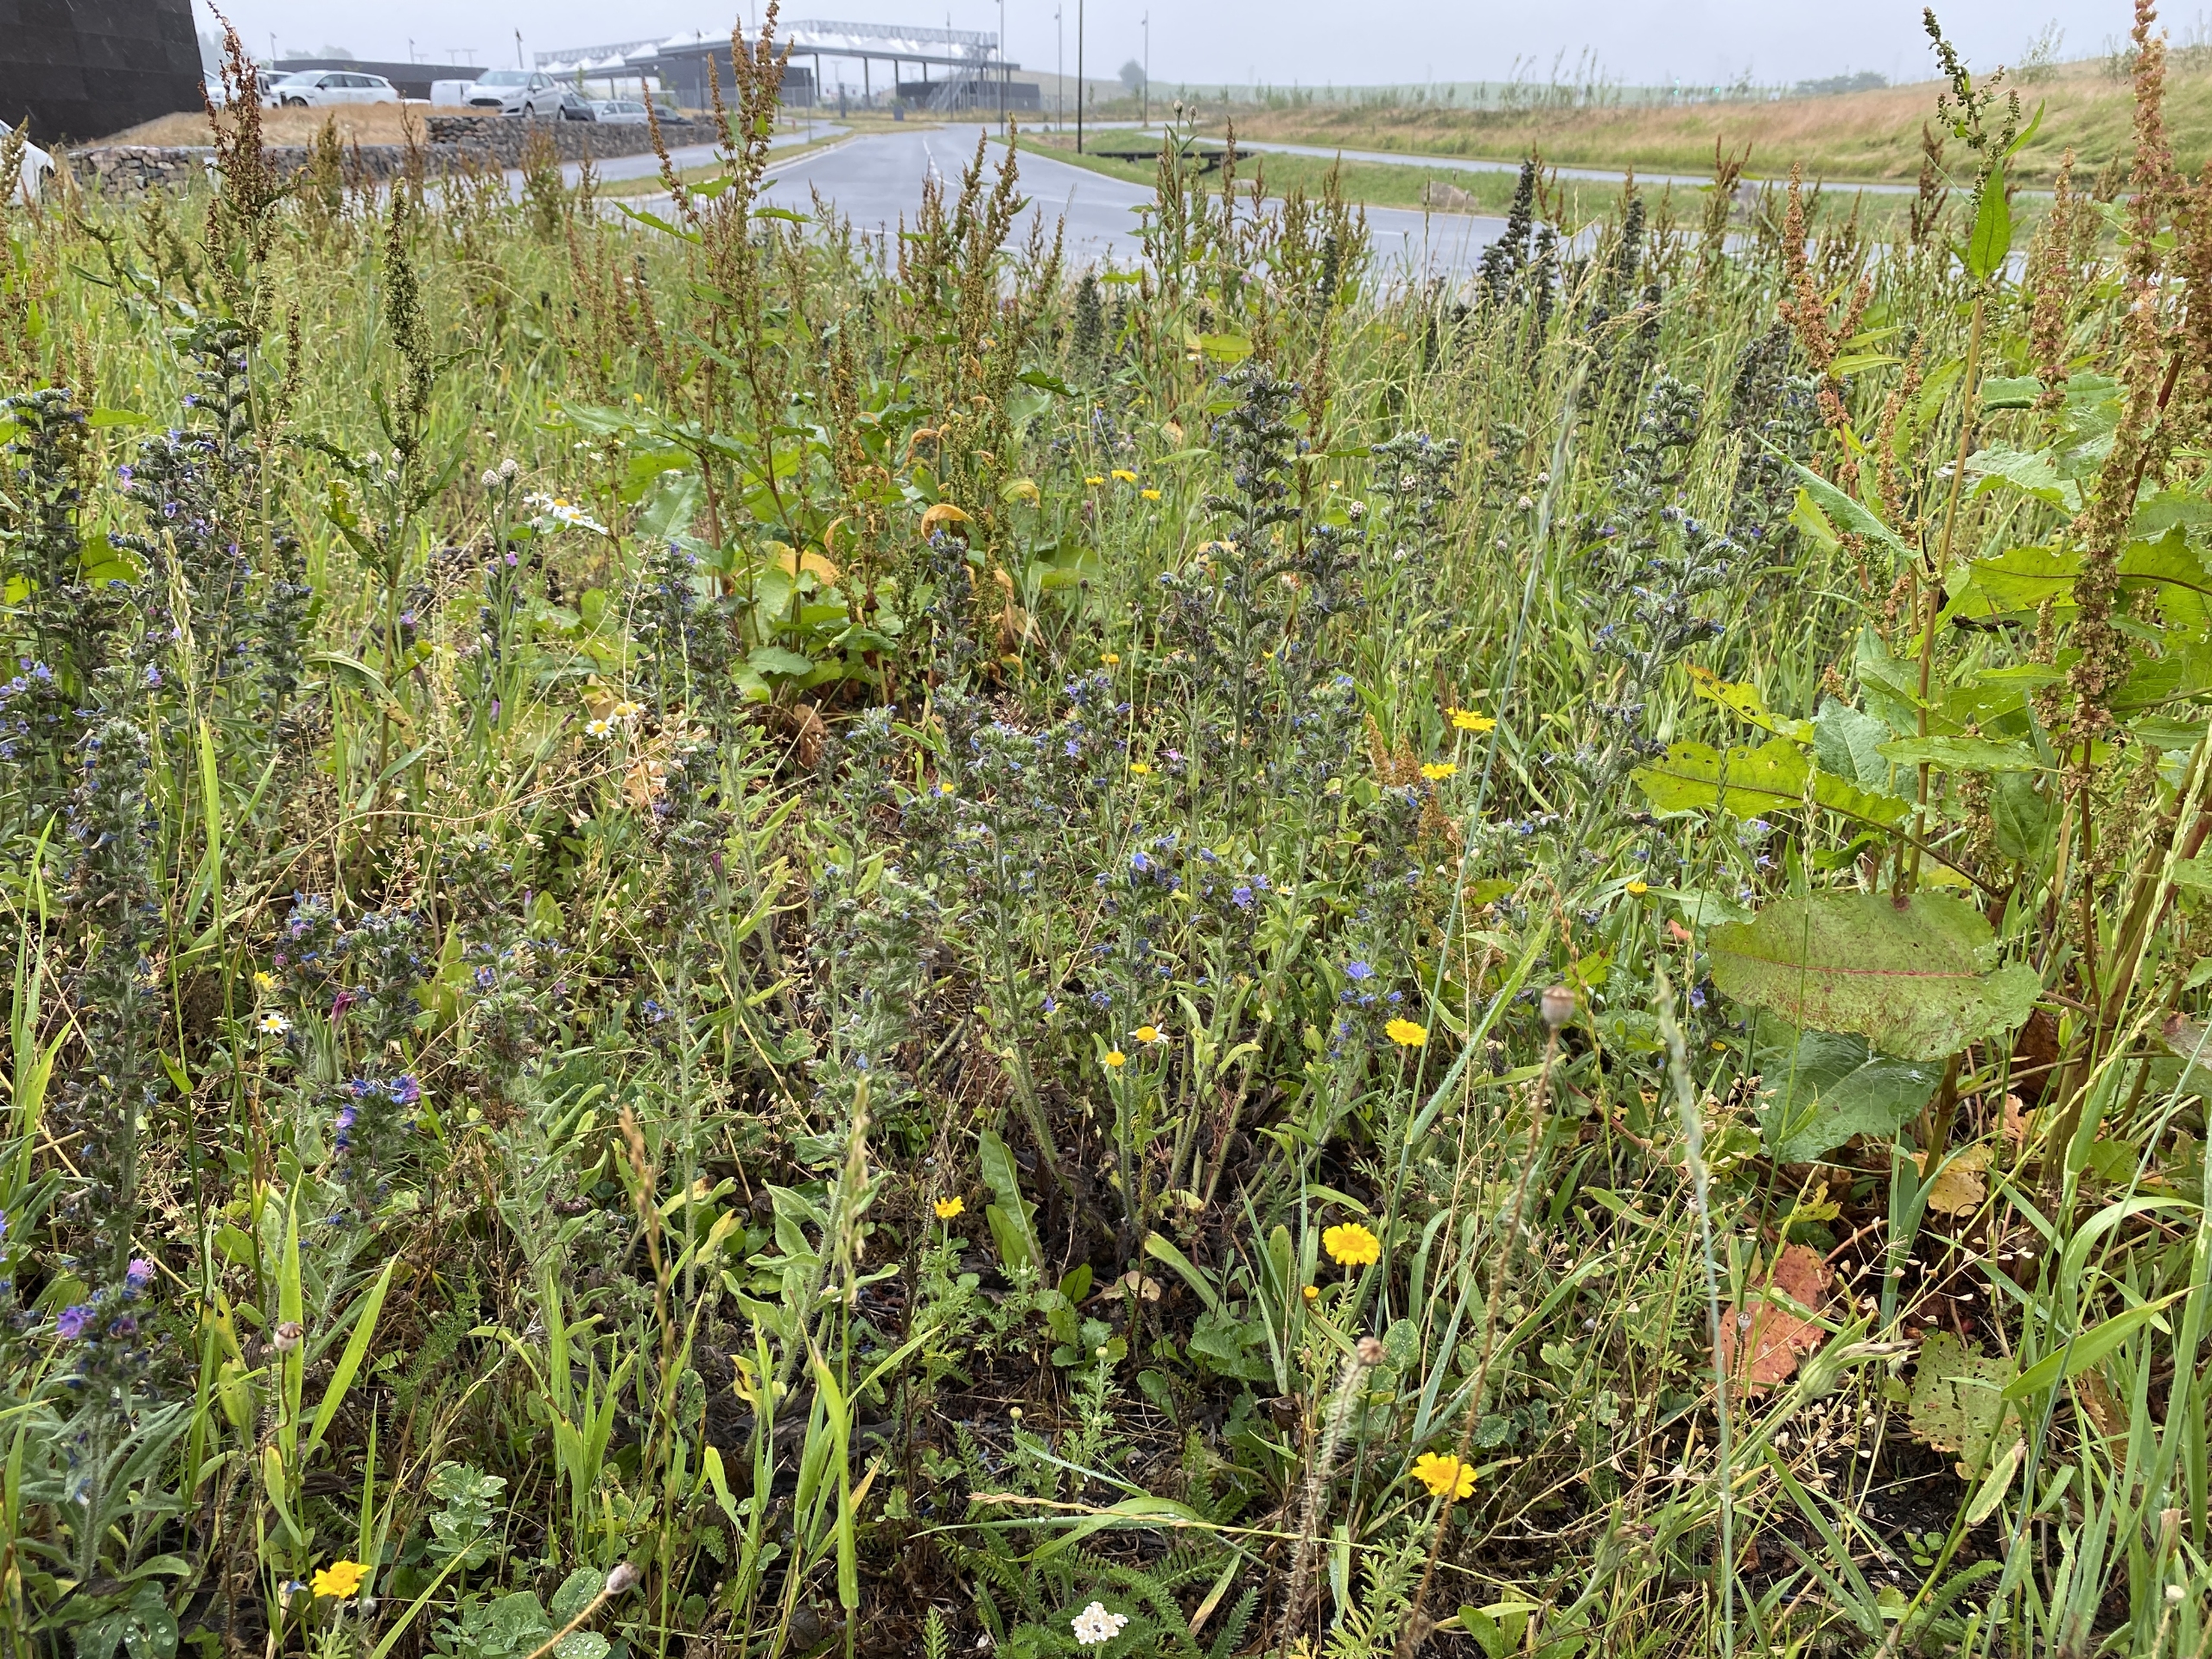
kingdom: Plantae
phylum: Tracheophyta
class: Magnoliopsida
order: Boraginales
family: Boraginaceae
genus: Echium
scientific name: Echium vulgare
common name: Slangehoved
